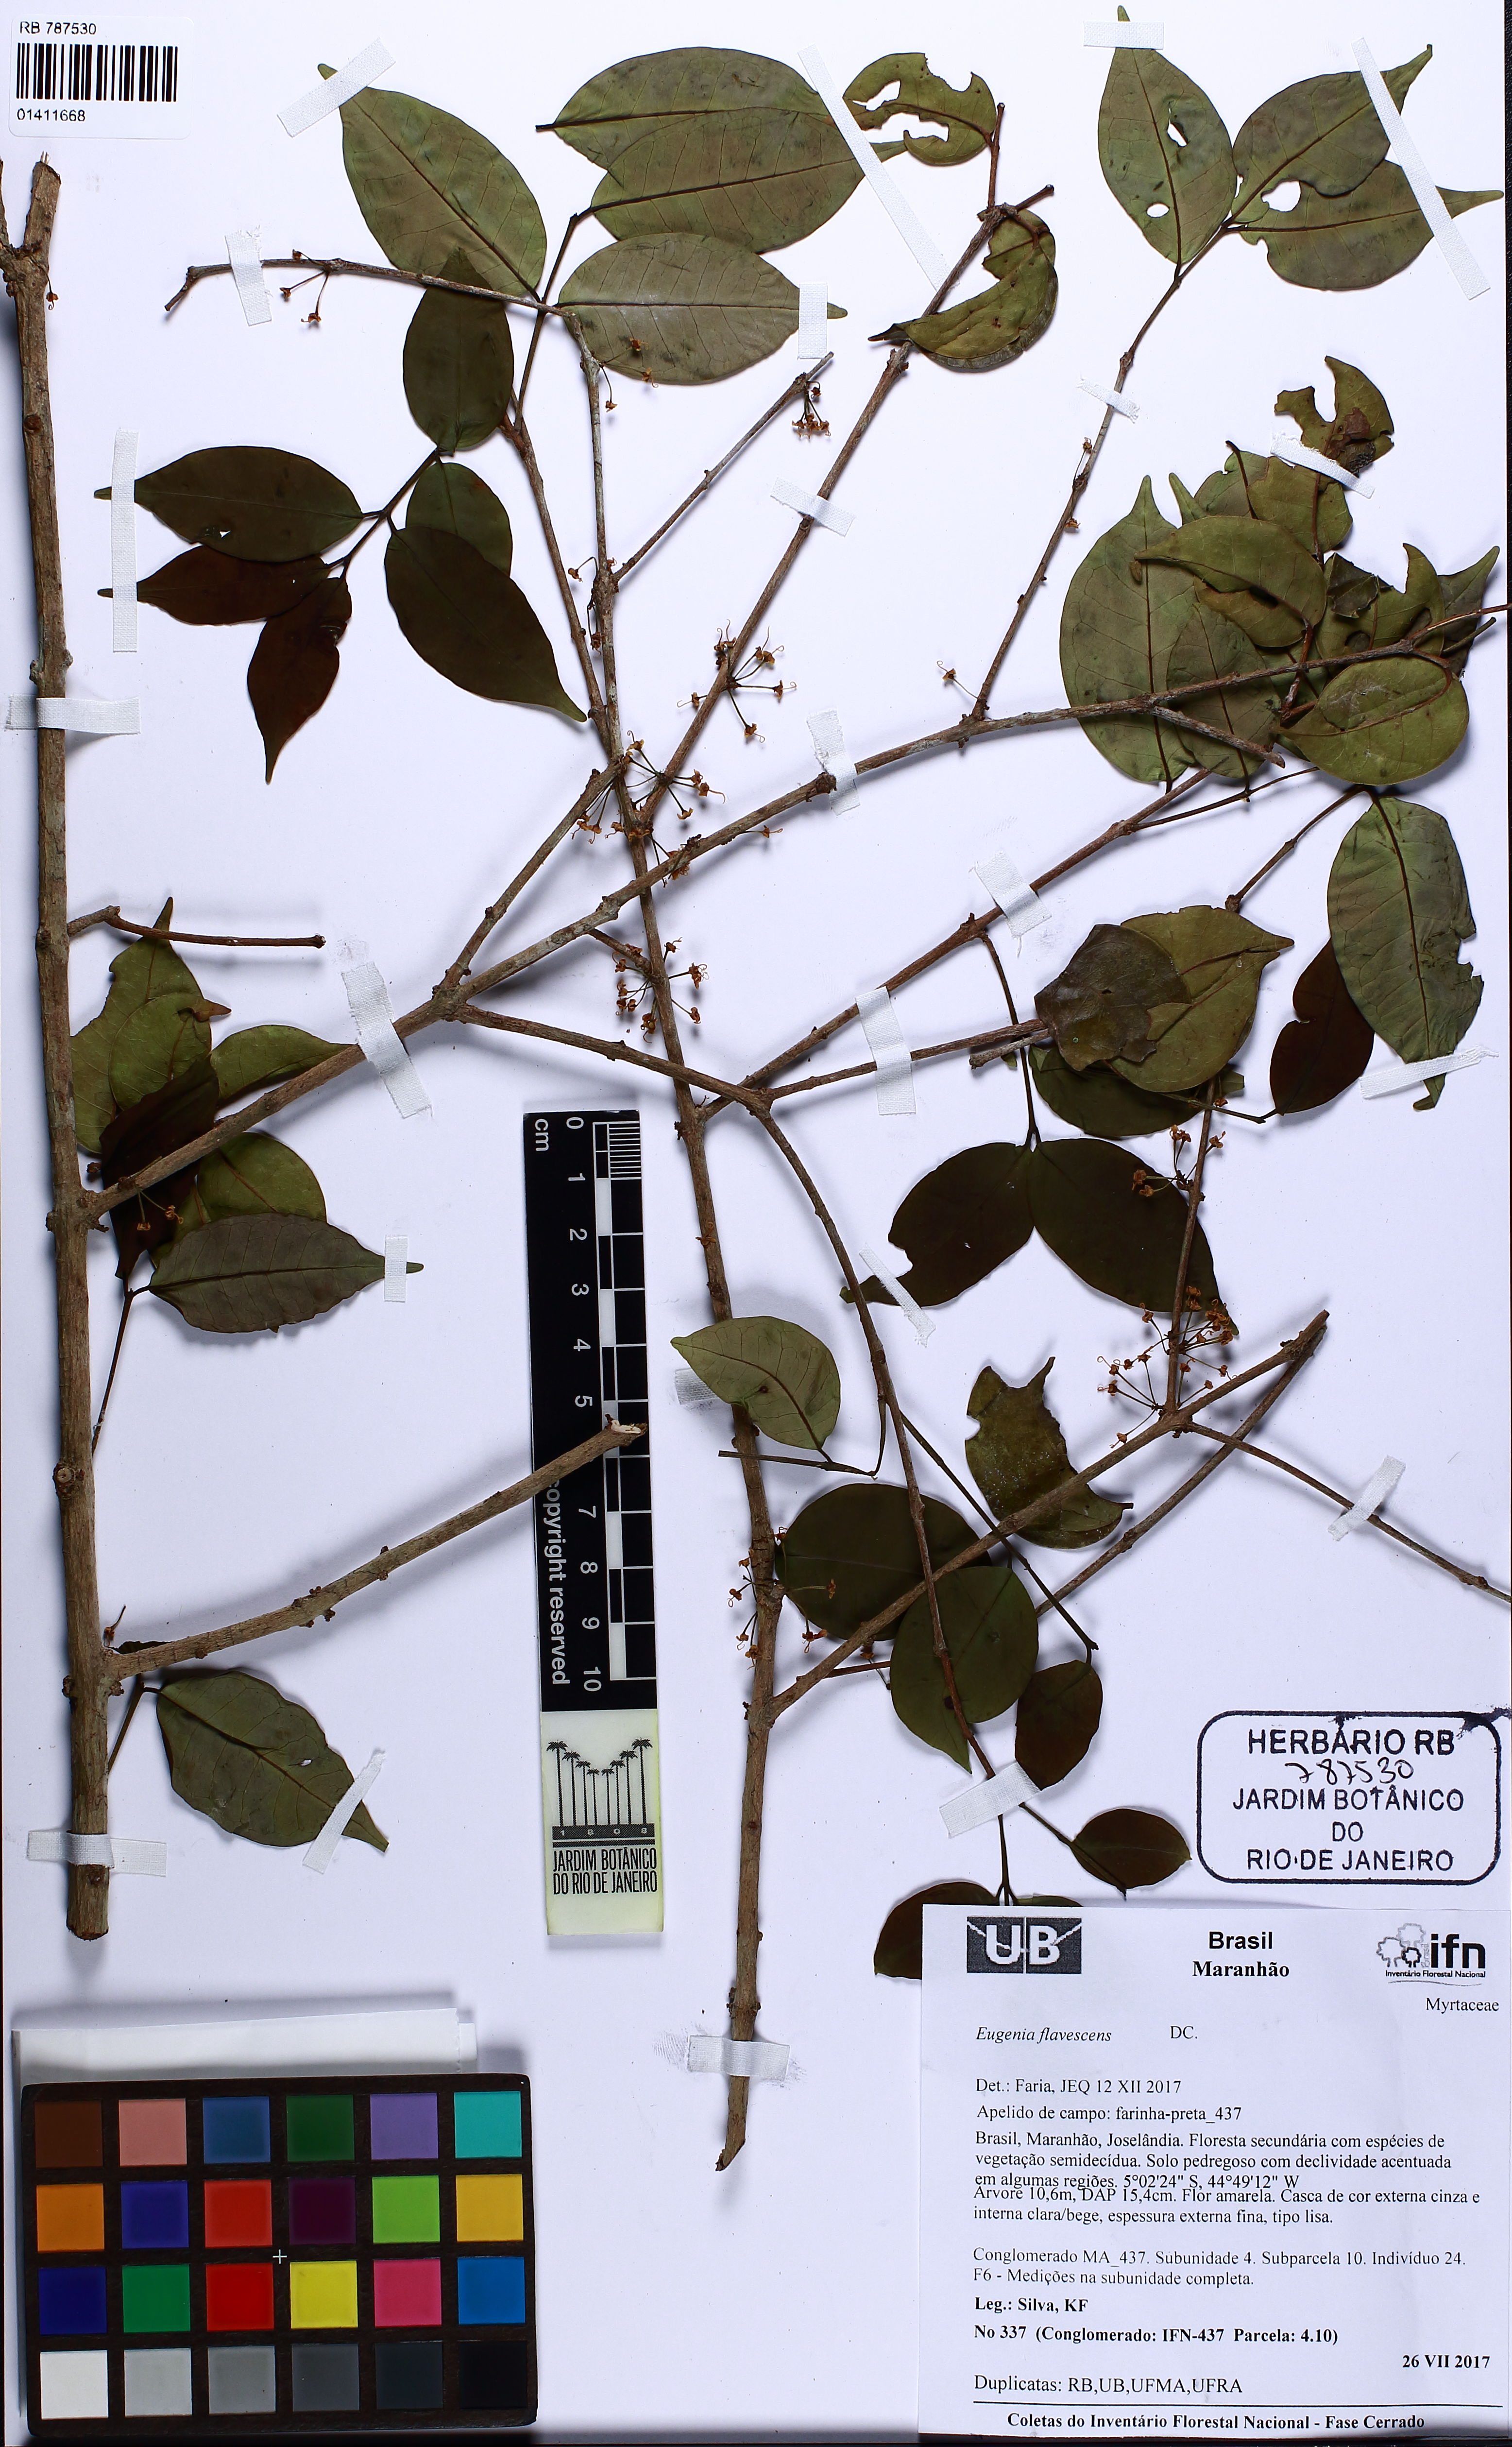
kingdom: Plantae
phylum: Tracheophyta
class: Magnoliopsida
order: Myrtales
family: Myrtaceae
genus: Eugenia
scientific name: Eugenia flavescens
